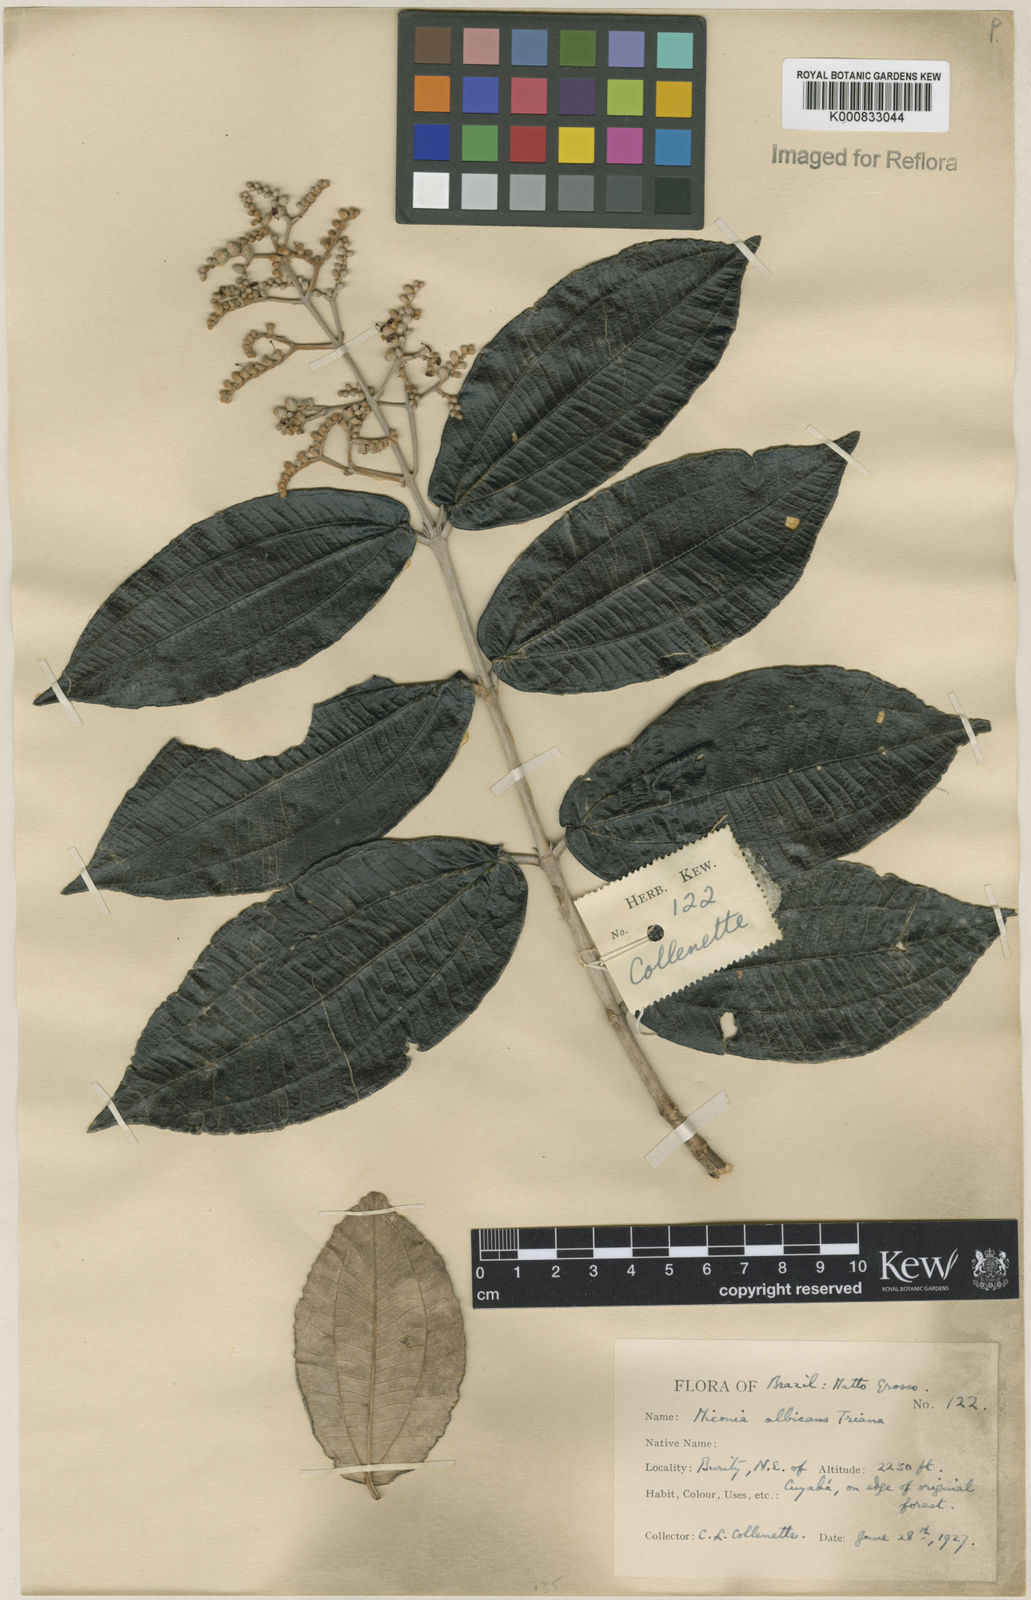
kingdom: Plantae
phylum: Tracheophyta
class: Magnoliopsida
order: Myrtales
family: Melastomataceae
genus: Miconia
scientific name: Miconia albicans
